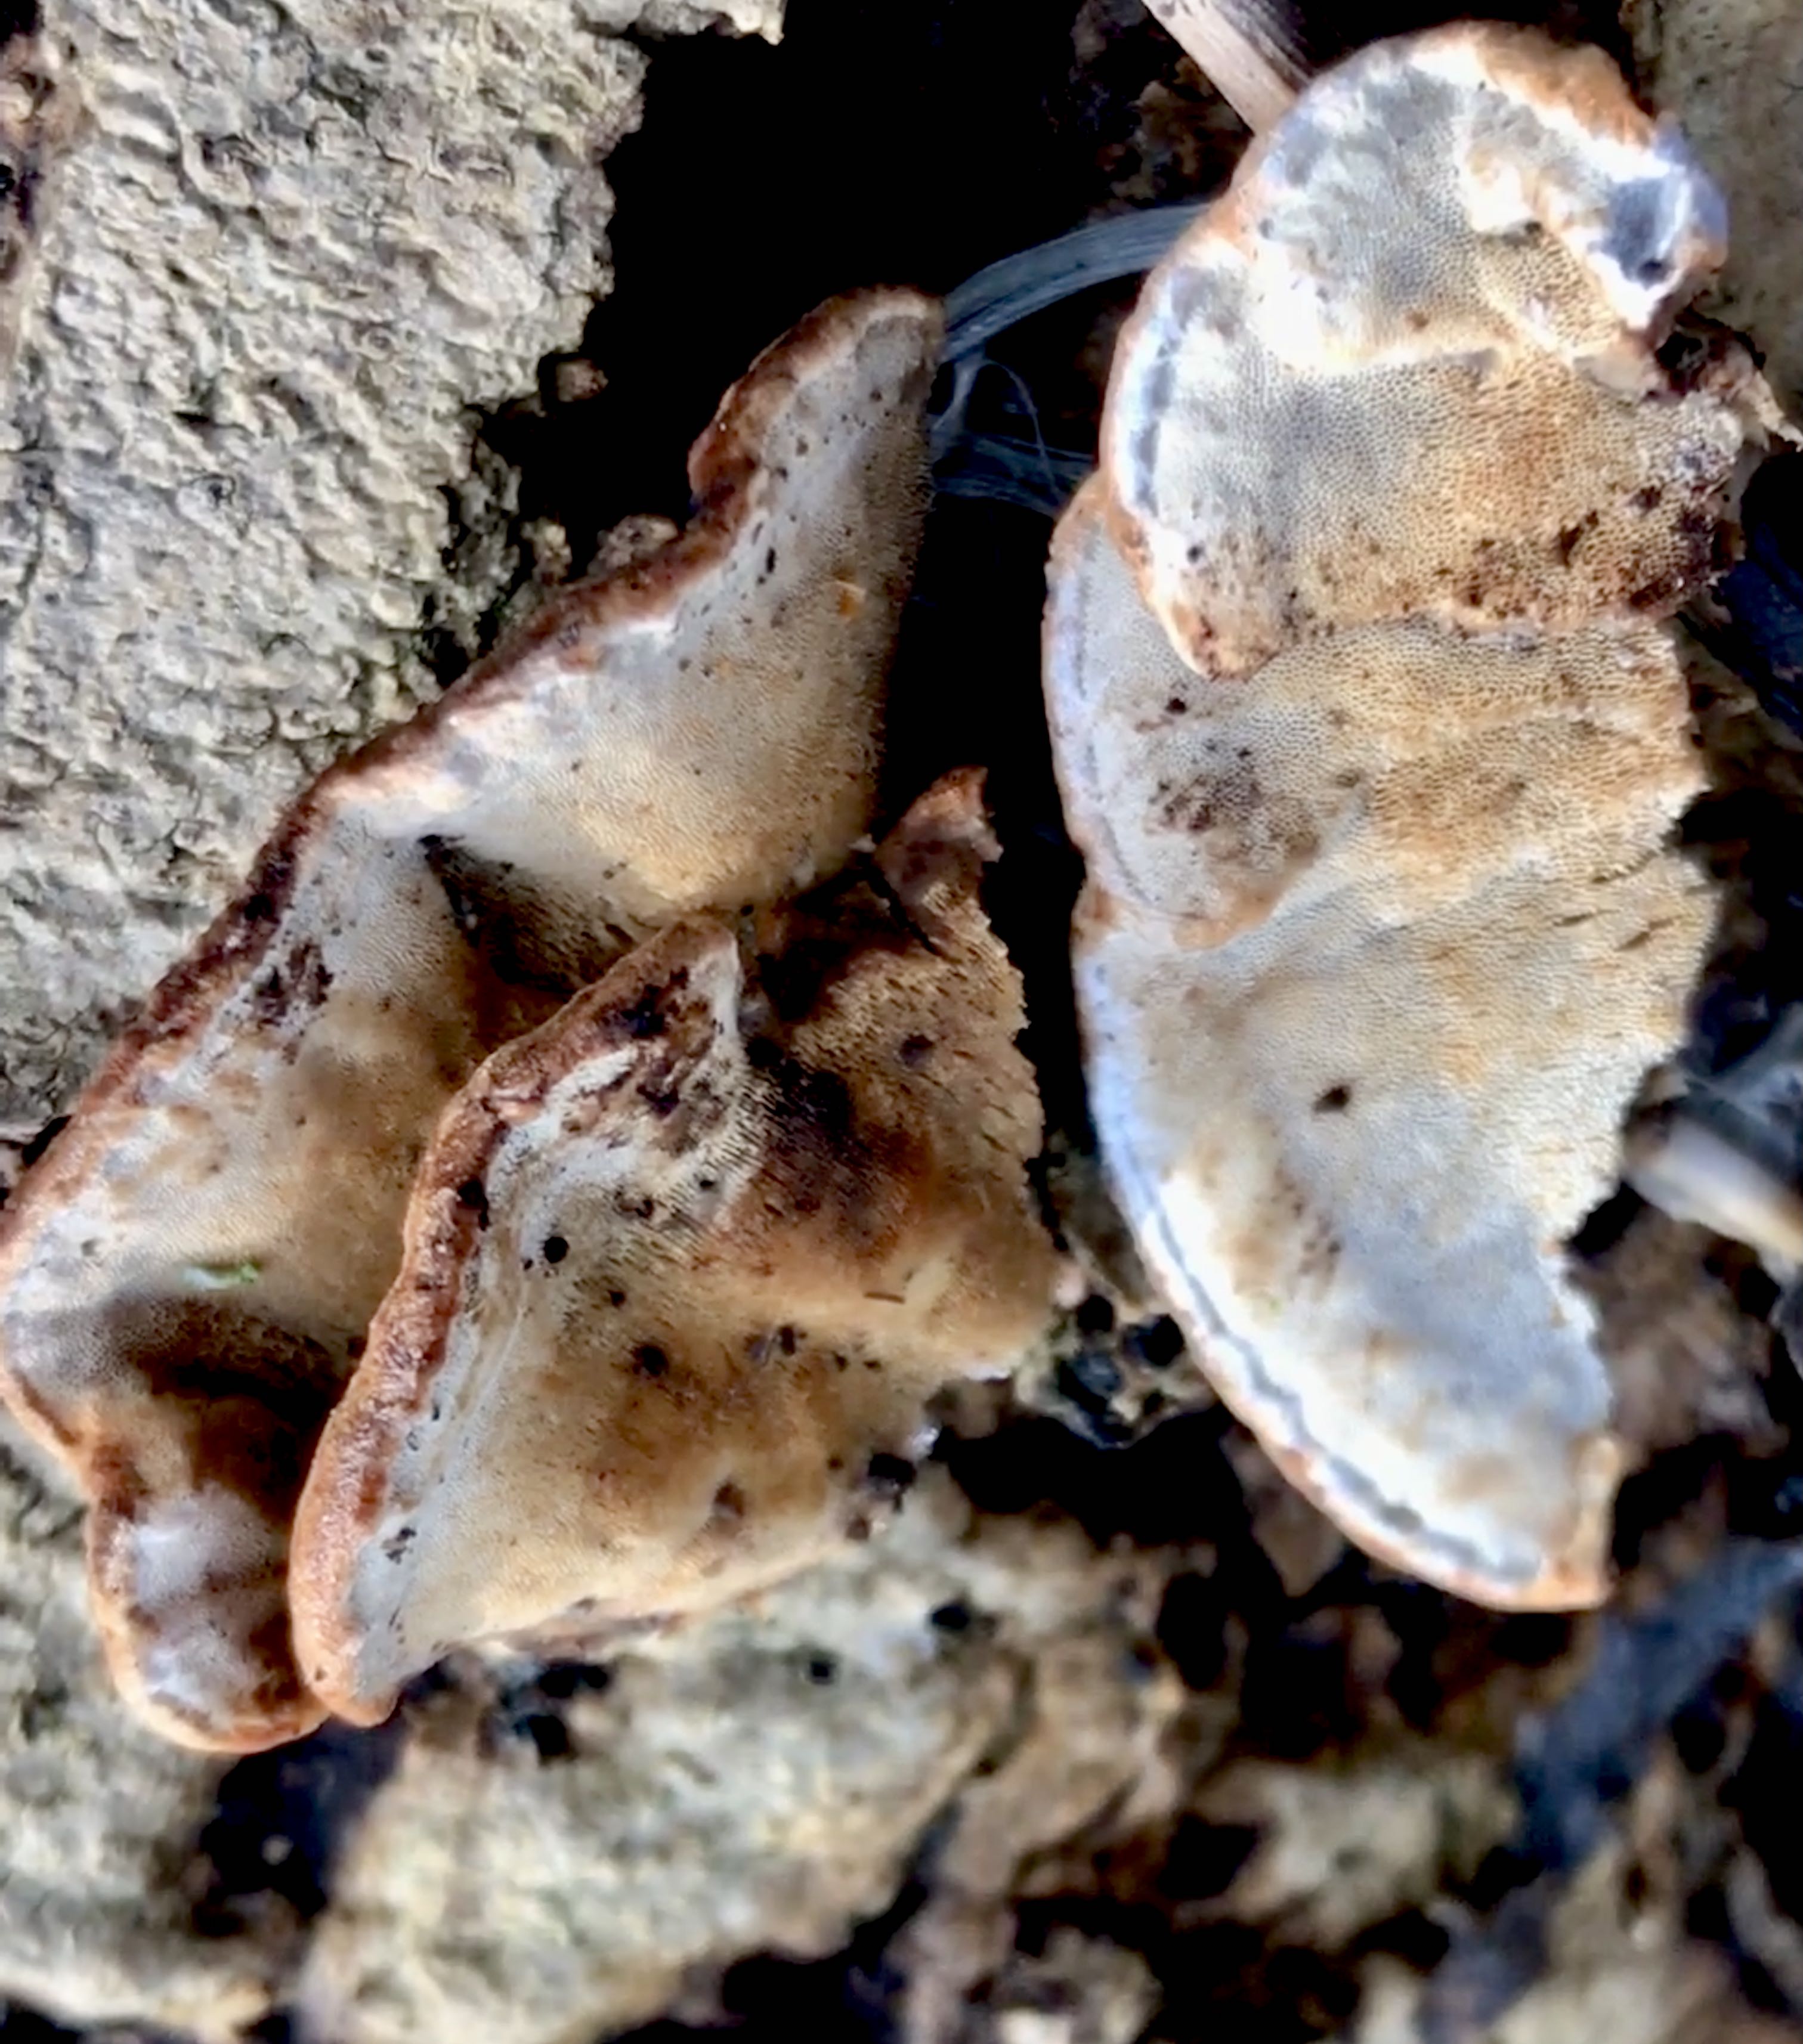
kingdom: Fungi
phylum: Basidiomycota
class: Agaricomycetes
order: Polyporales
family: Incrustoporiaceae
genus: Skeletocutis
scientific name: Skeletocutis nemoralis
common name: stor krystalporesvamp
